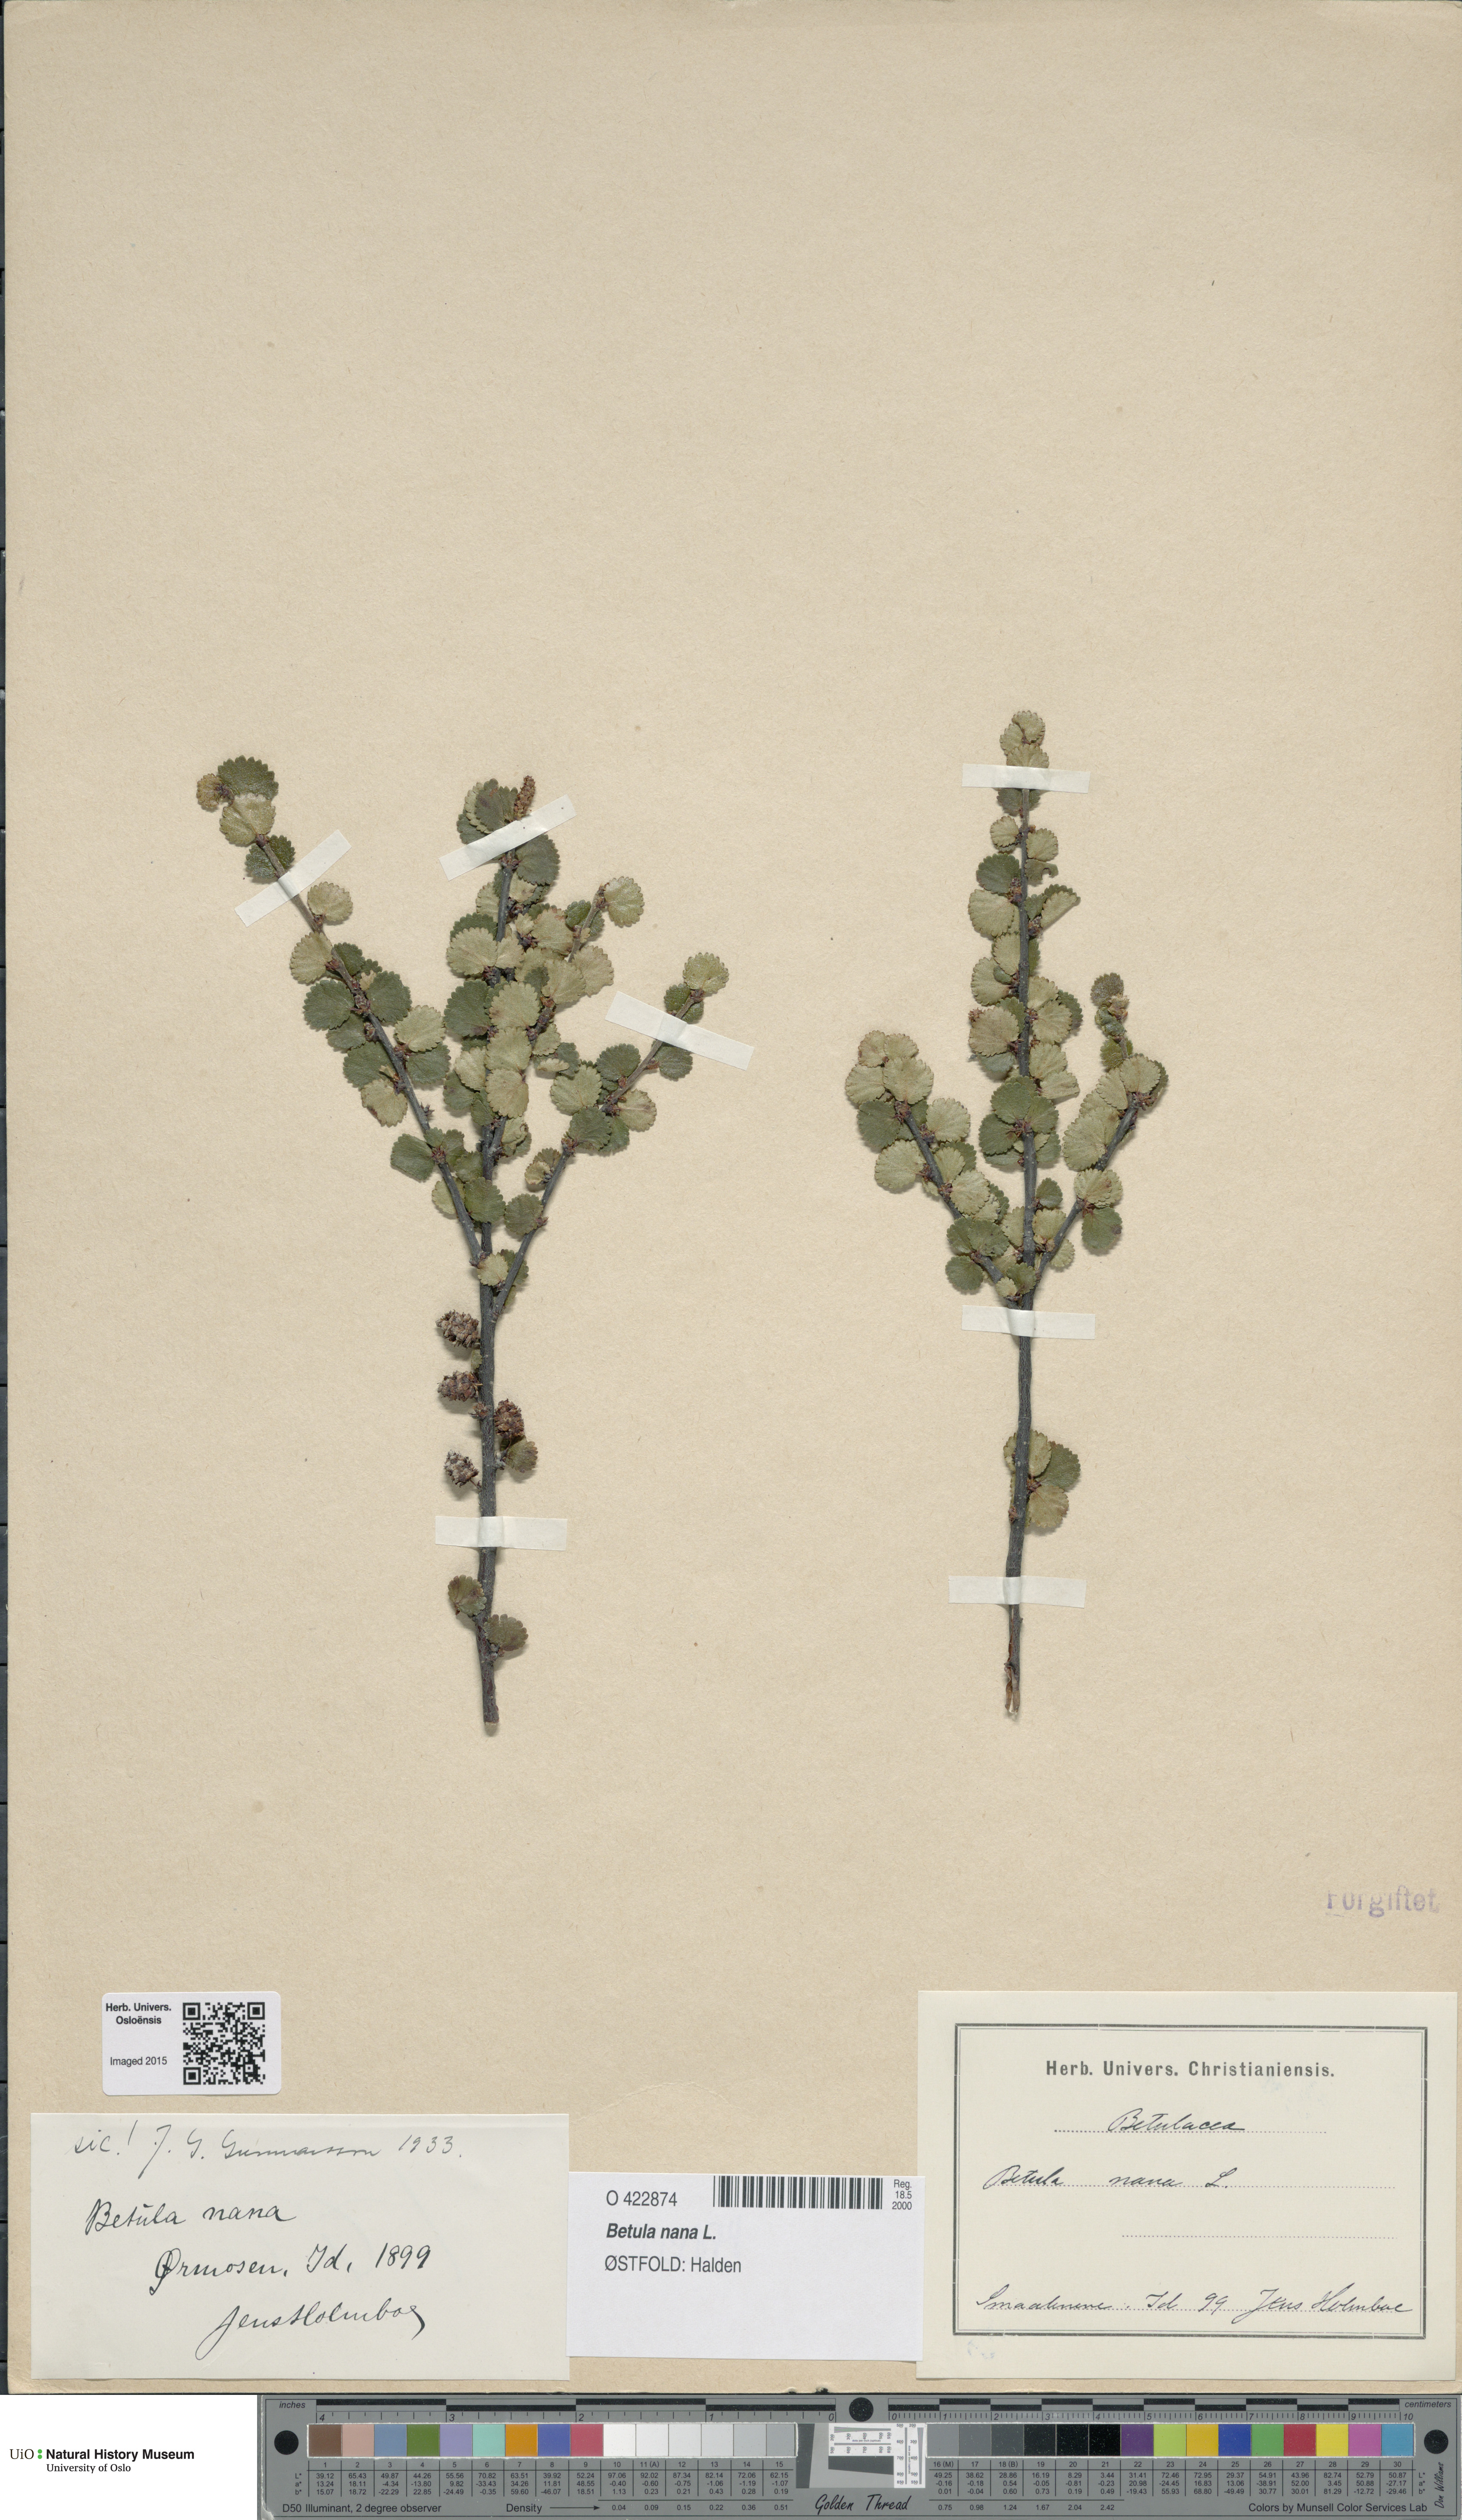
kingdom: Plantae
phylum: Tracheophyta
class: Magnoliopsida
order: Fagales
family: Betulaceae
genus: Betula
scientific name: Betula nana
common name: Arctic dwarf birch
